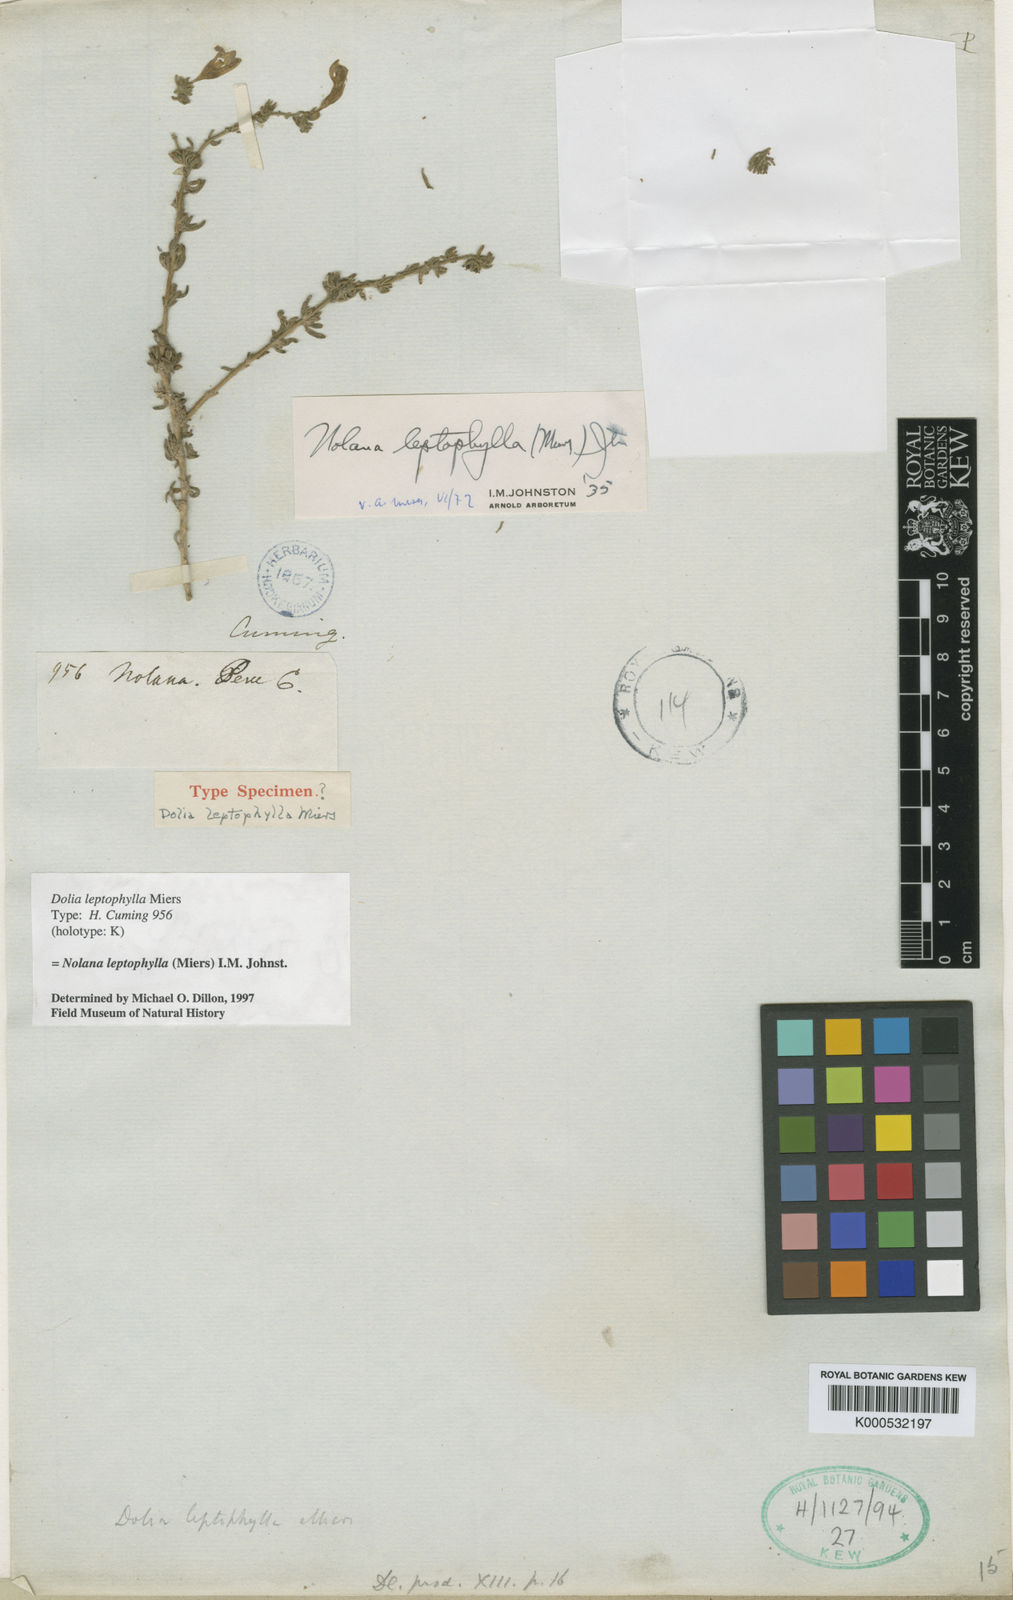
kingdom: Plantae
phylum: Tracheophyta
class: Magnoliopsida
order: Solanales
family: Solanaceae
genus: Nolana
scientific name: Nolana leptophylla
